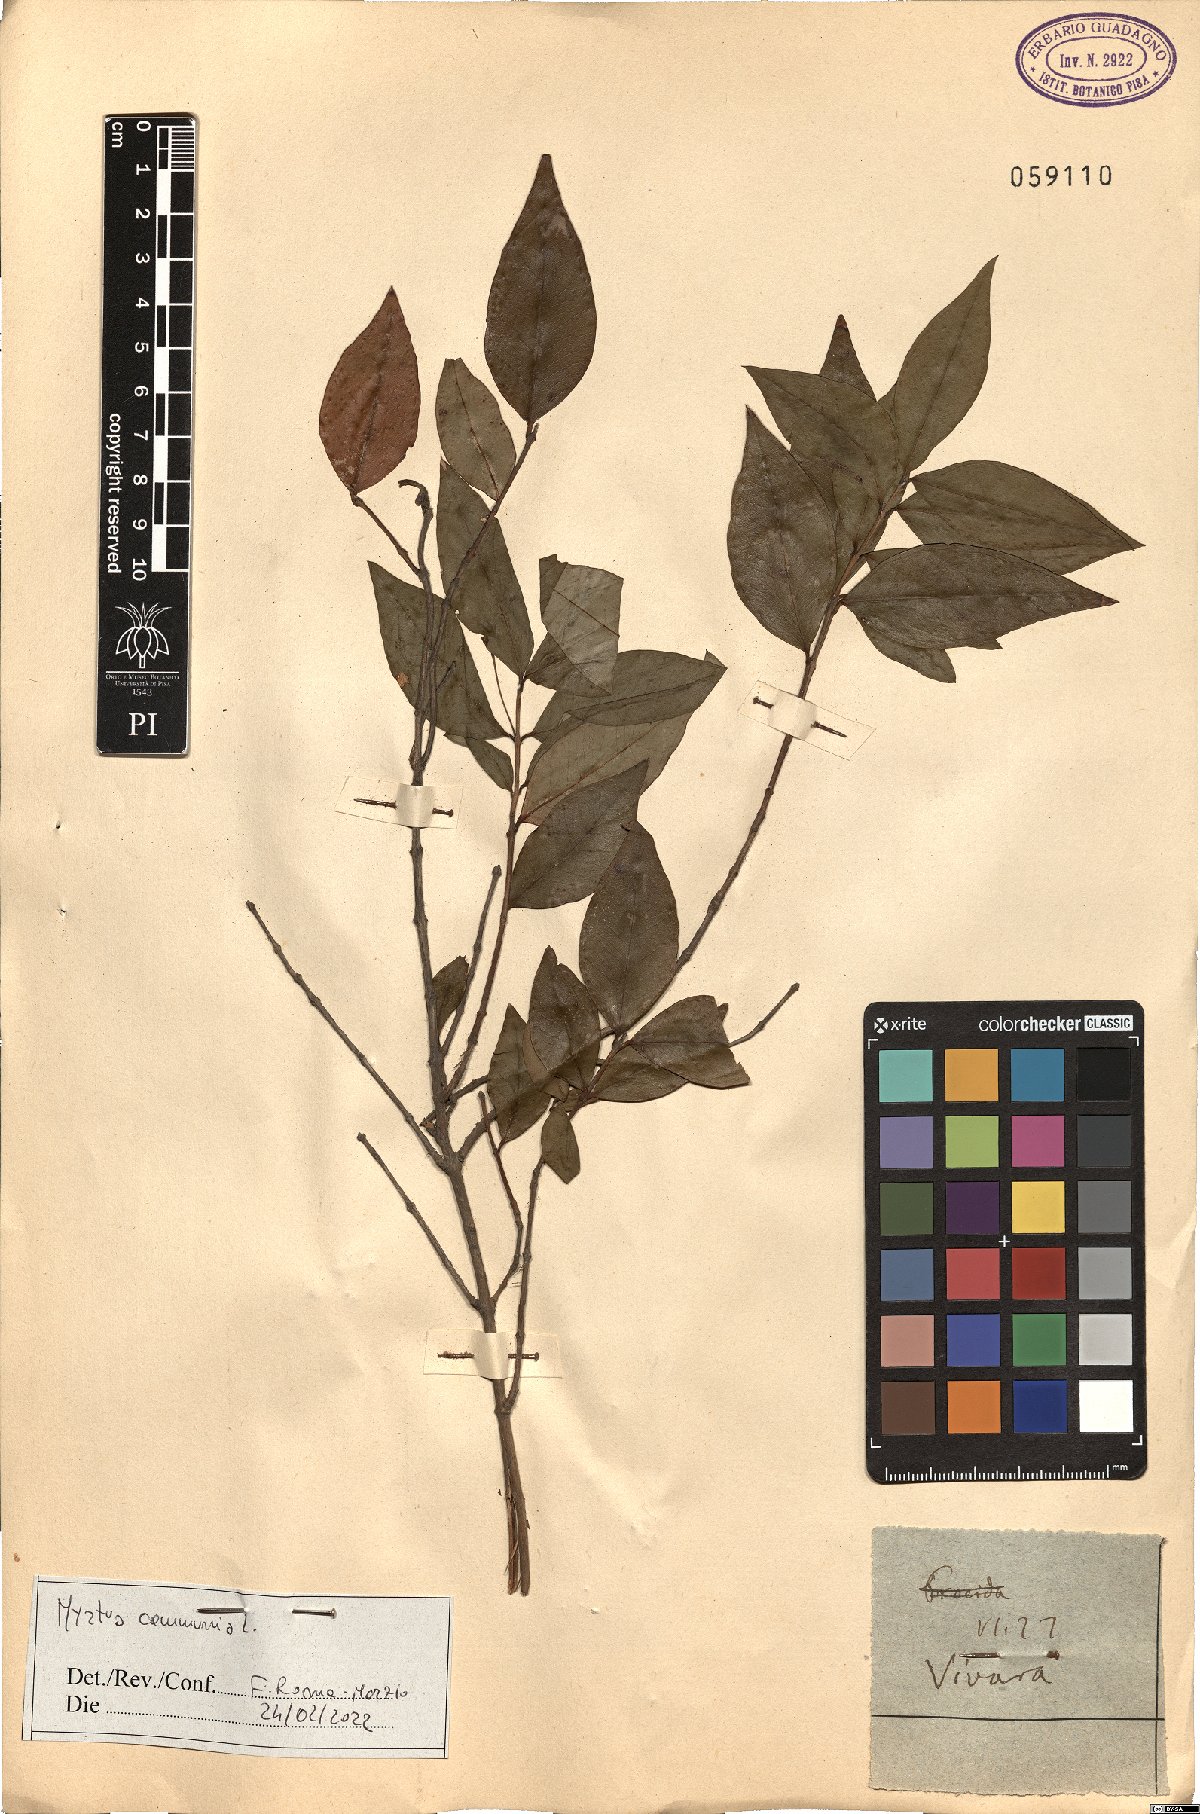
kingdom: Plantae
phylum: Tracheophyta
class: Magnoliopsida
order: Myrtales
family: Myrtaceae
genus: Myrtus
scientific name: Myrtus communis
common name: Myrtle
